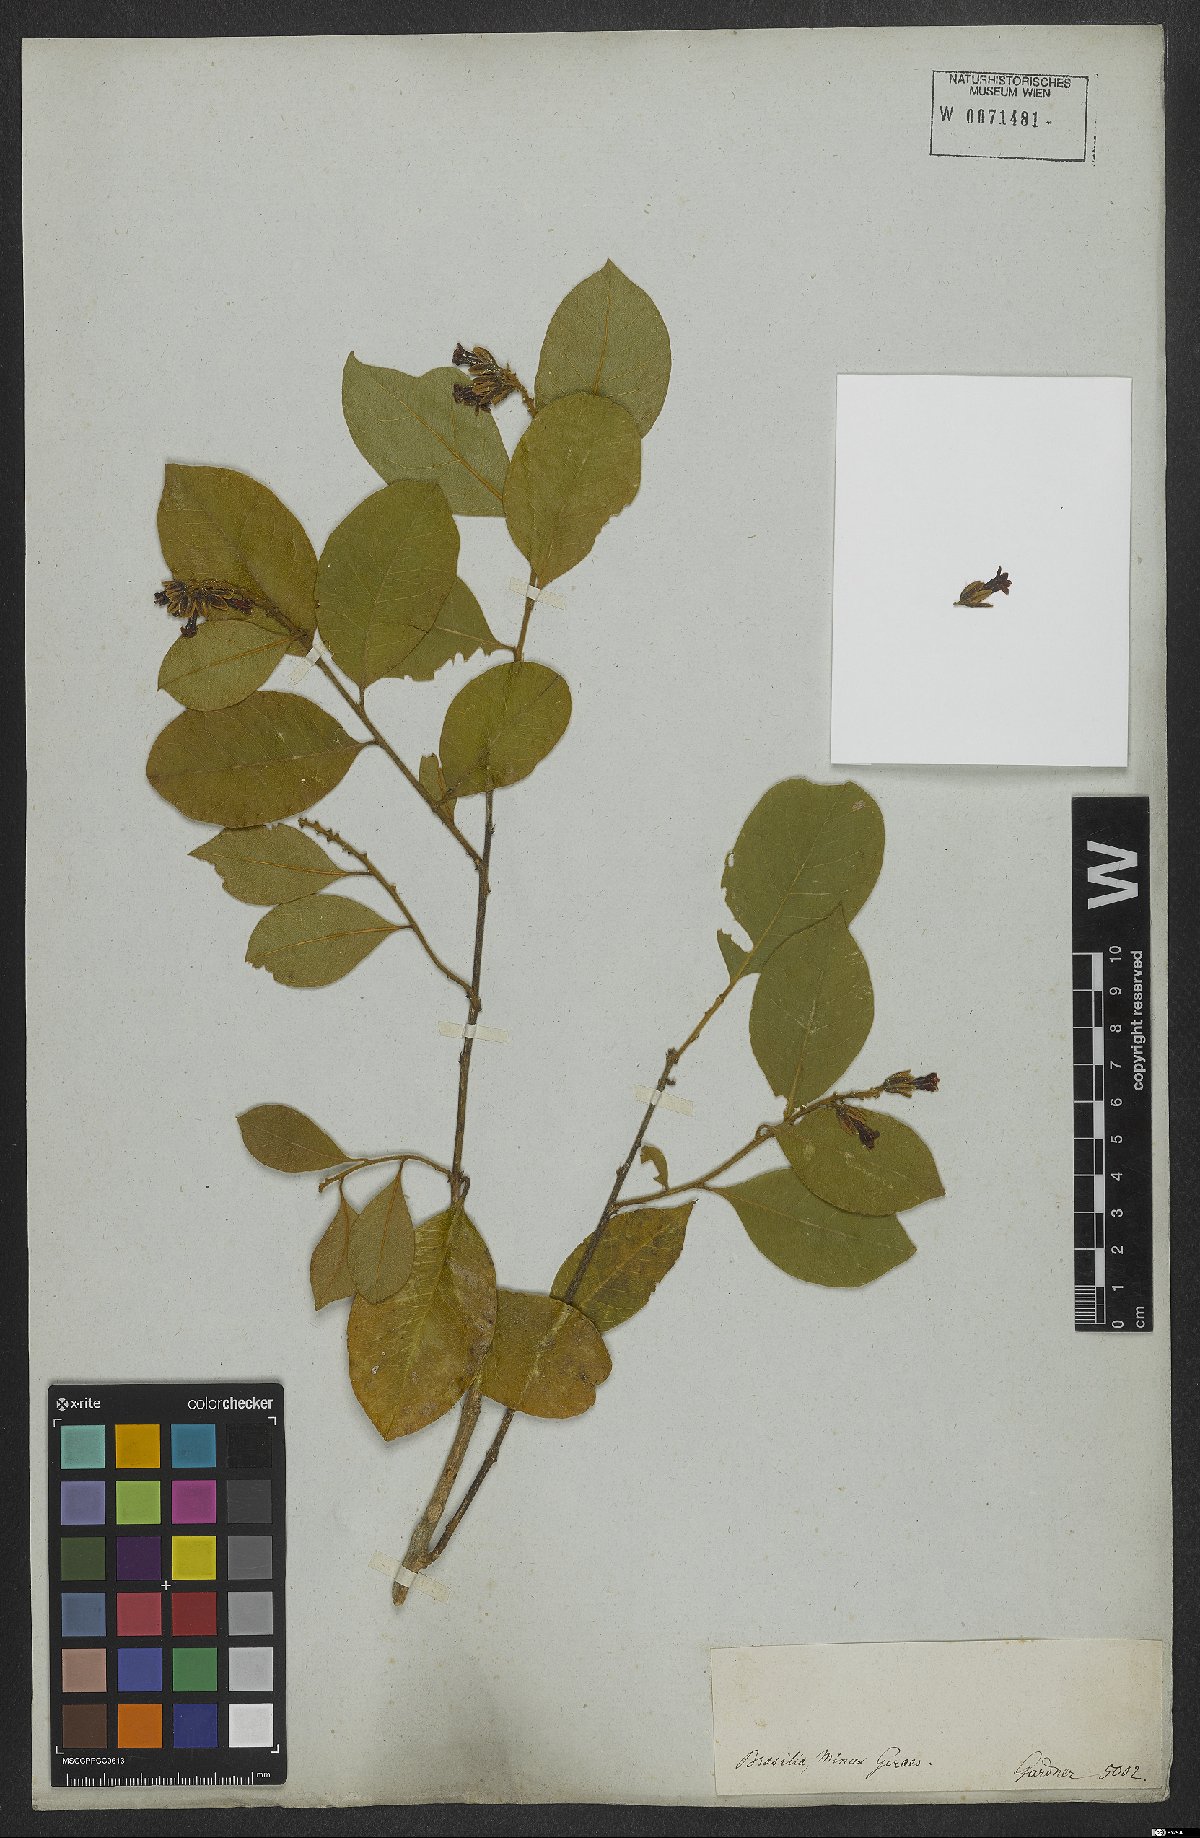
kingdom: Plantae
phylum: Tracheophyta
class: Magnoliopsida
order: Fabales
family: Polygalaceae
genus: Diclidanthera
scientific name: Diclidanthera laurifolia
